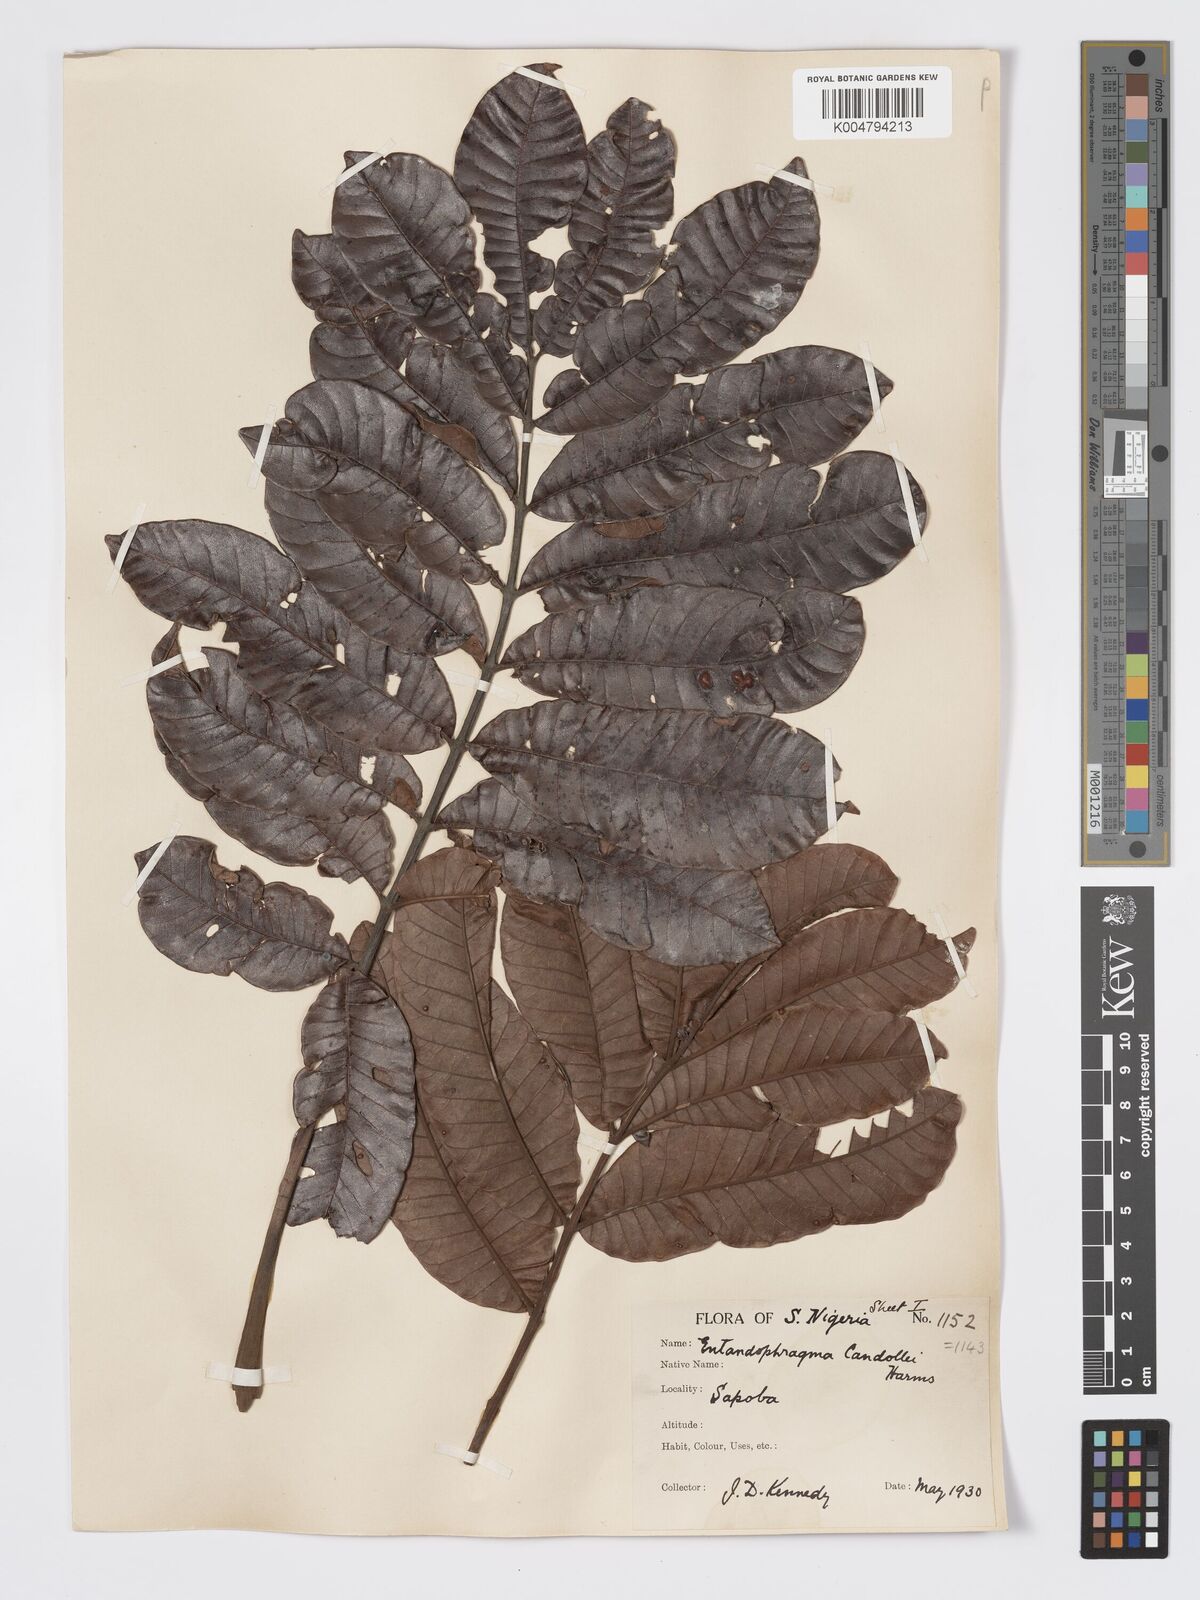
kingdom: Plantae
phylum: Tracheophyta
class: Magnoliopsida
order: Sapindales
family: Meliaceae
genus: Entandrophragma
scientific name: Entandrophragma candollei
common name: Cedar kokoti
